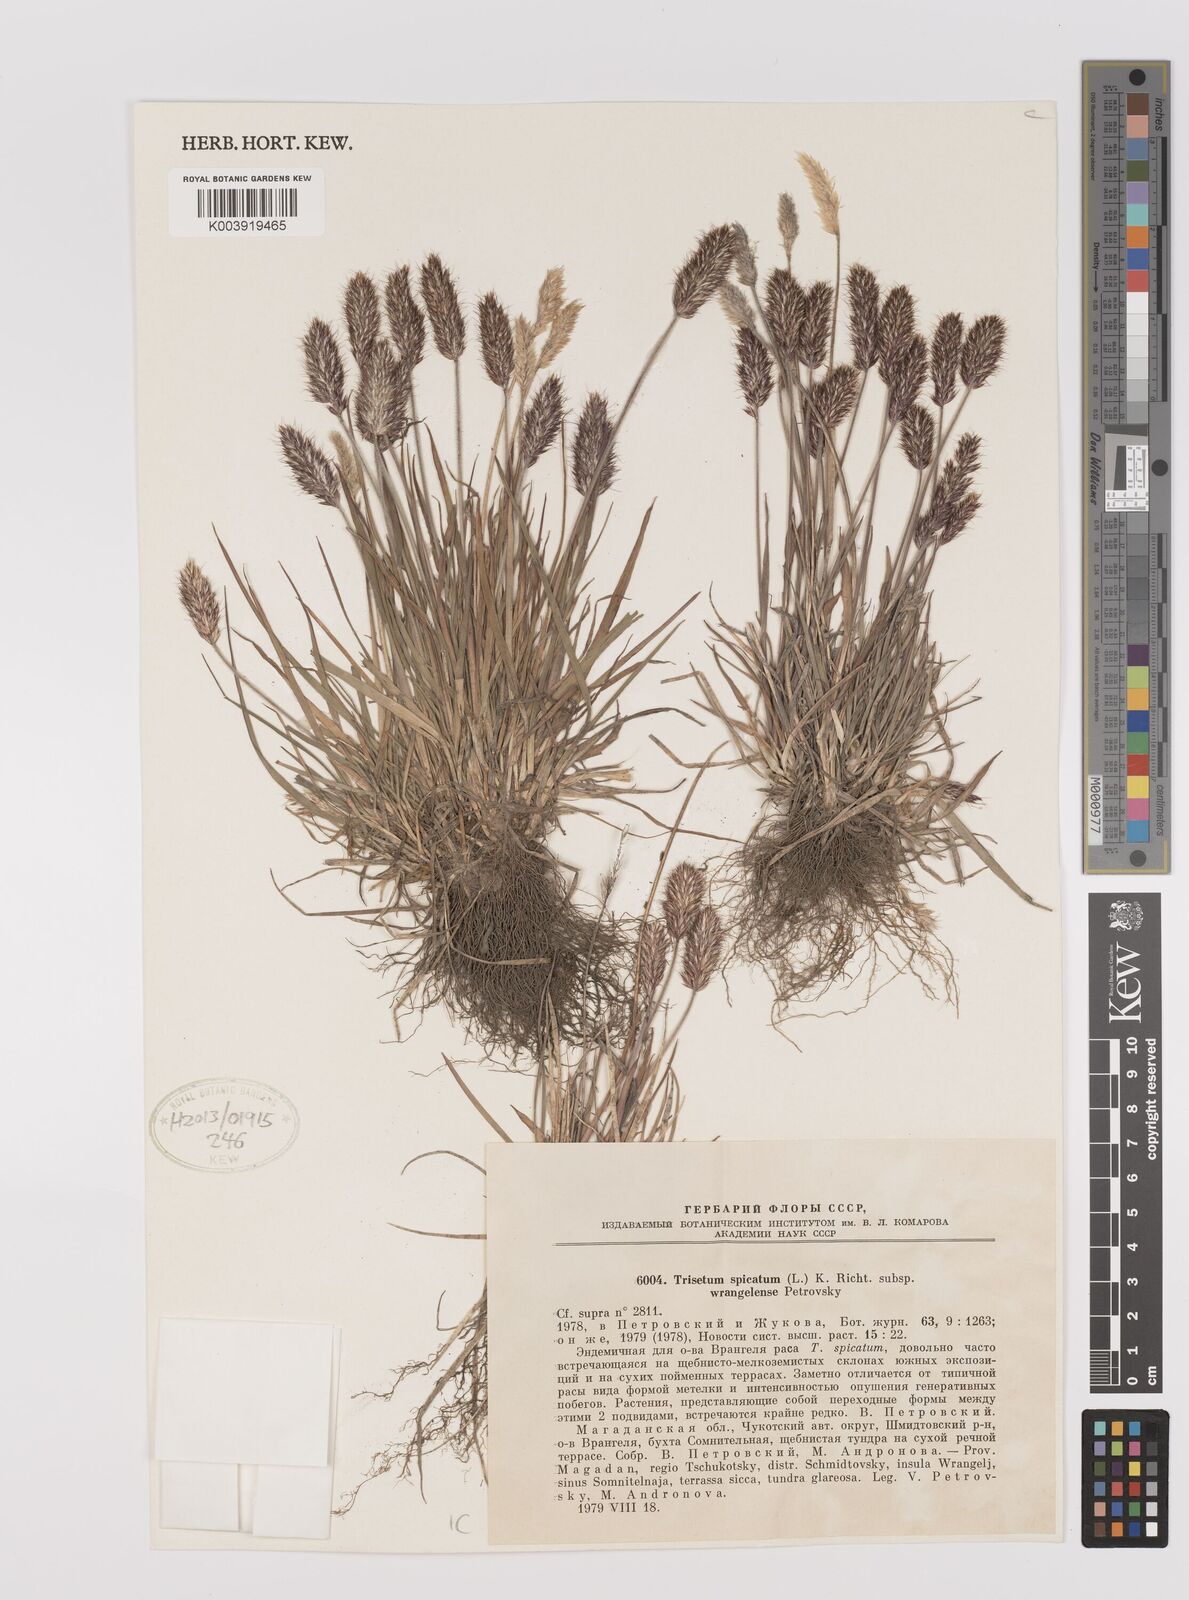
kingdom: Plantae
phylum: Tracheophyta
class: Liliopsida
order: Poales
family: Poaceae
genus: Koeleria
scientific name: Koeleria spicata
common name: Mountain trisetum
